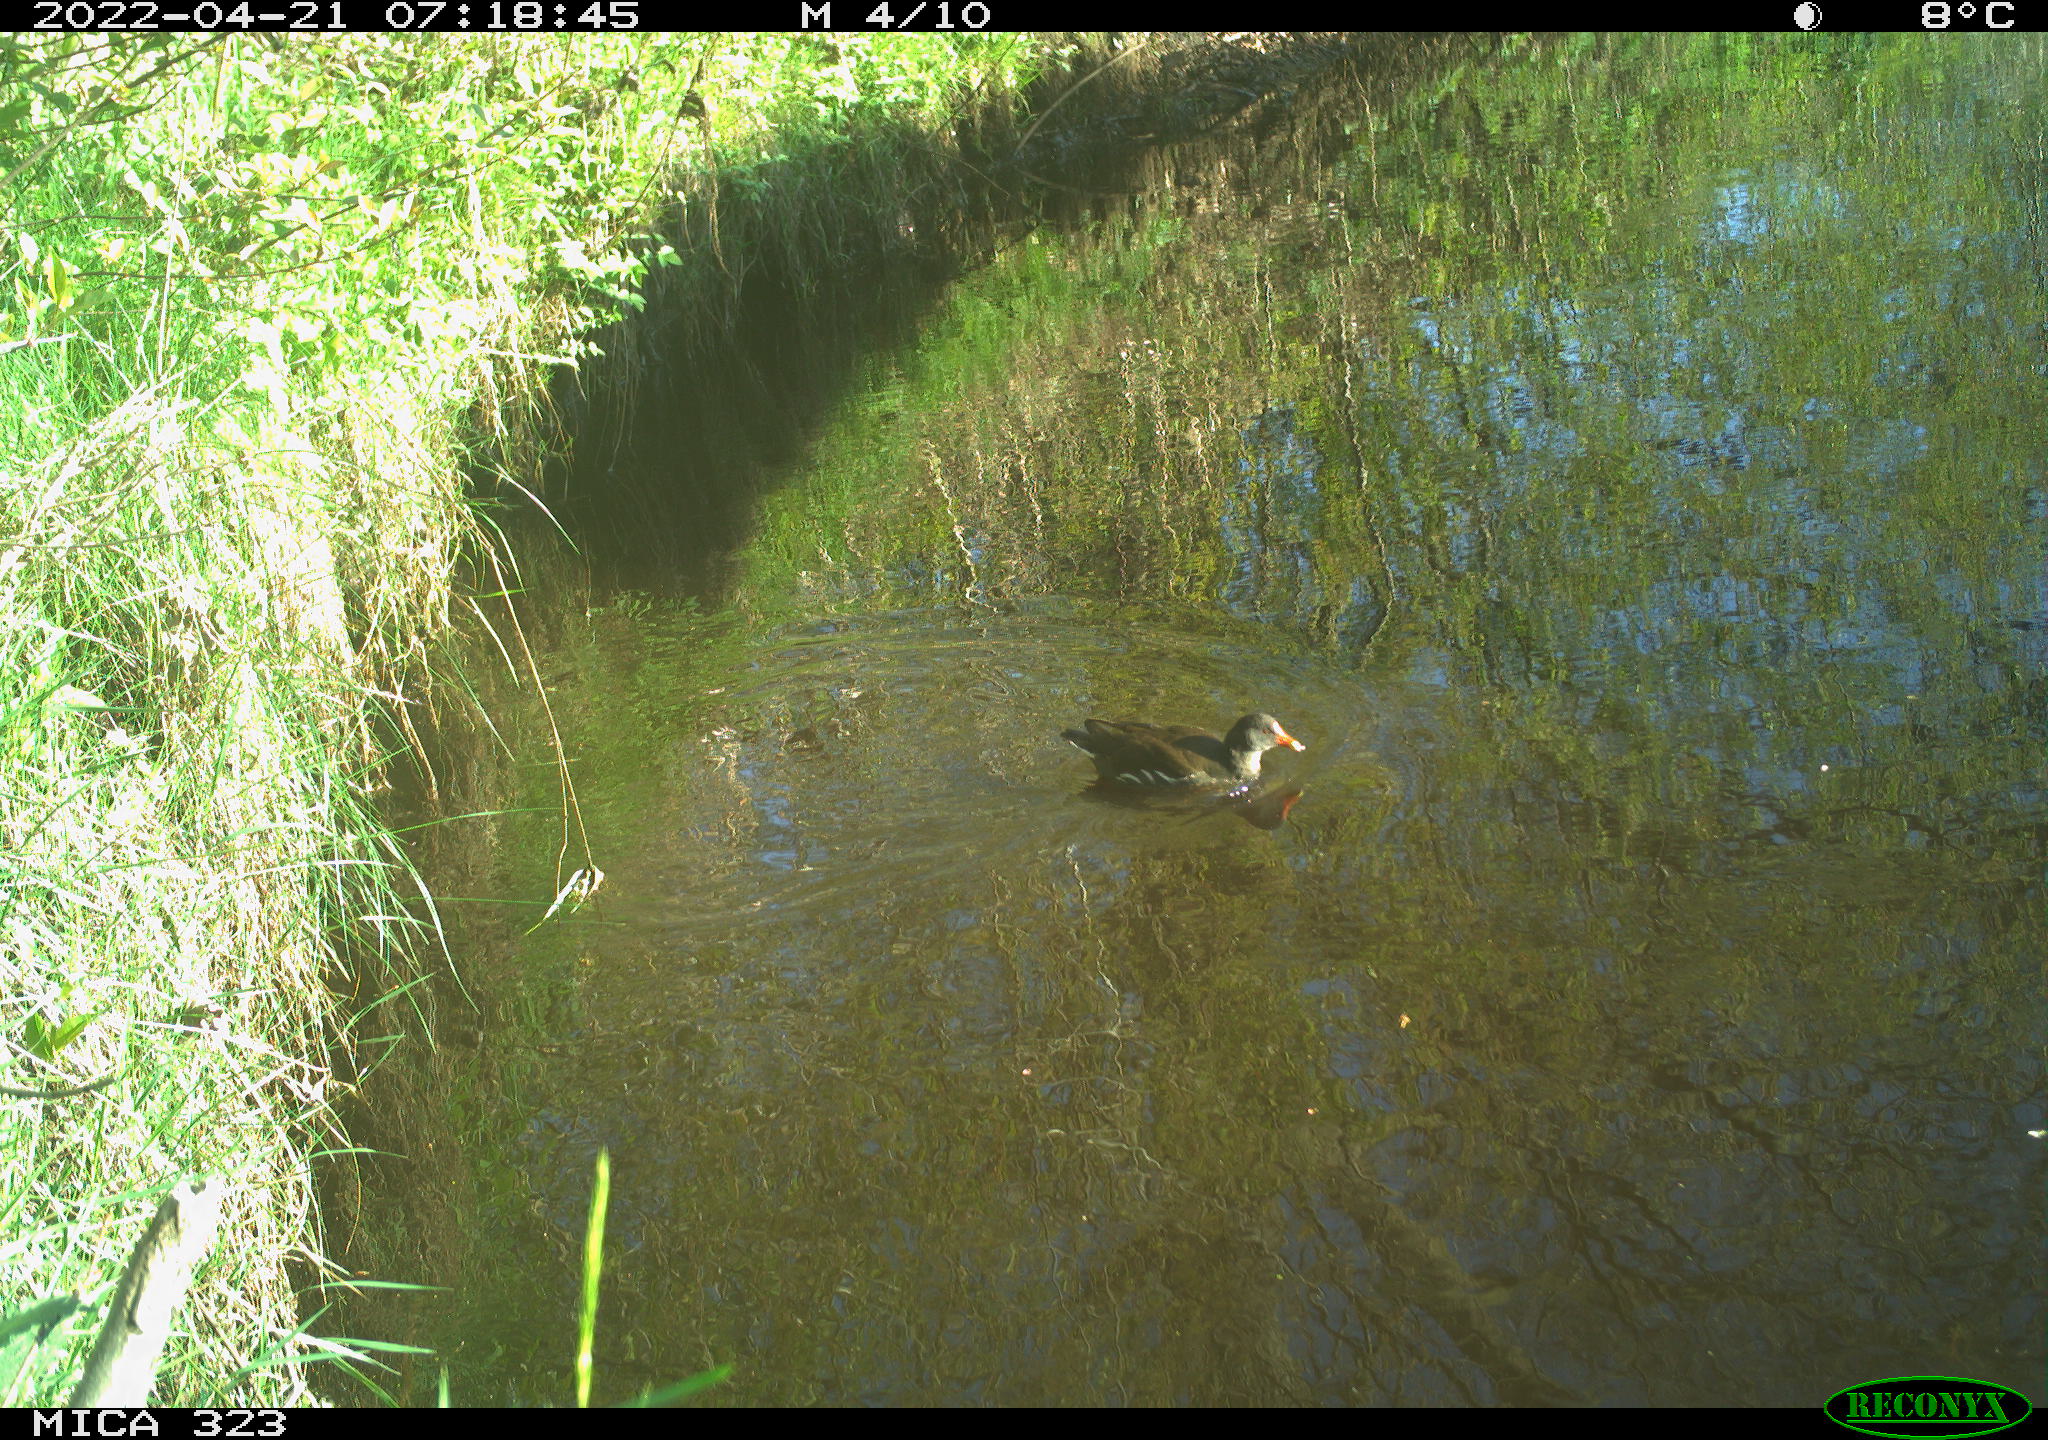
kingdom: Animalia
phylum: Chordata
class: Aves
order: Gruiformes
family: Rallidae
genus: Gallinula
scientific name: Gallinula chloropus
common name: Common moorhen
